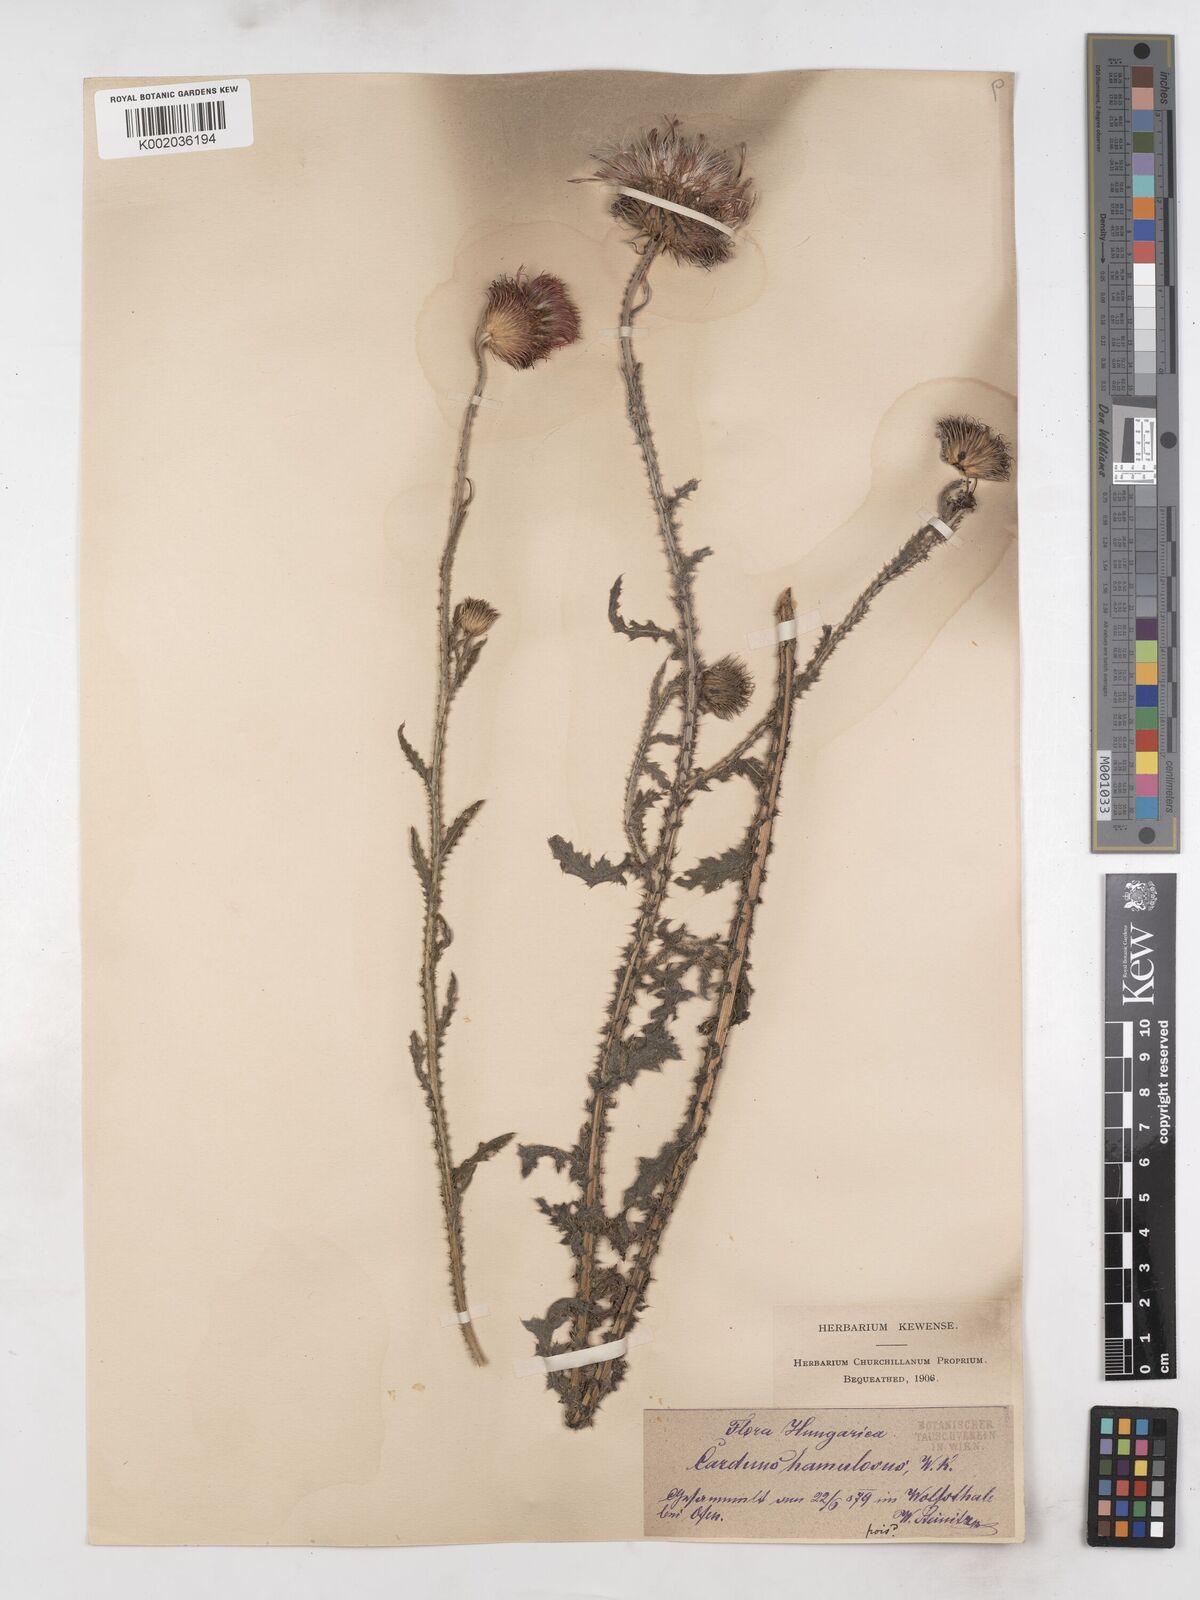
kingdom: Plantae
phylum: Tracheophyta
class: Magnoliopsida
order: Asterales
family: Asteraceae
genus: Carduus
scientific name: Carduus hamulosus
